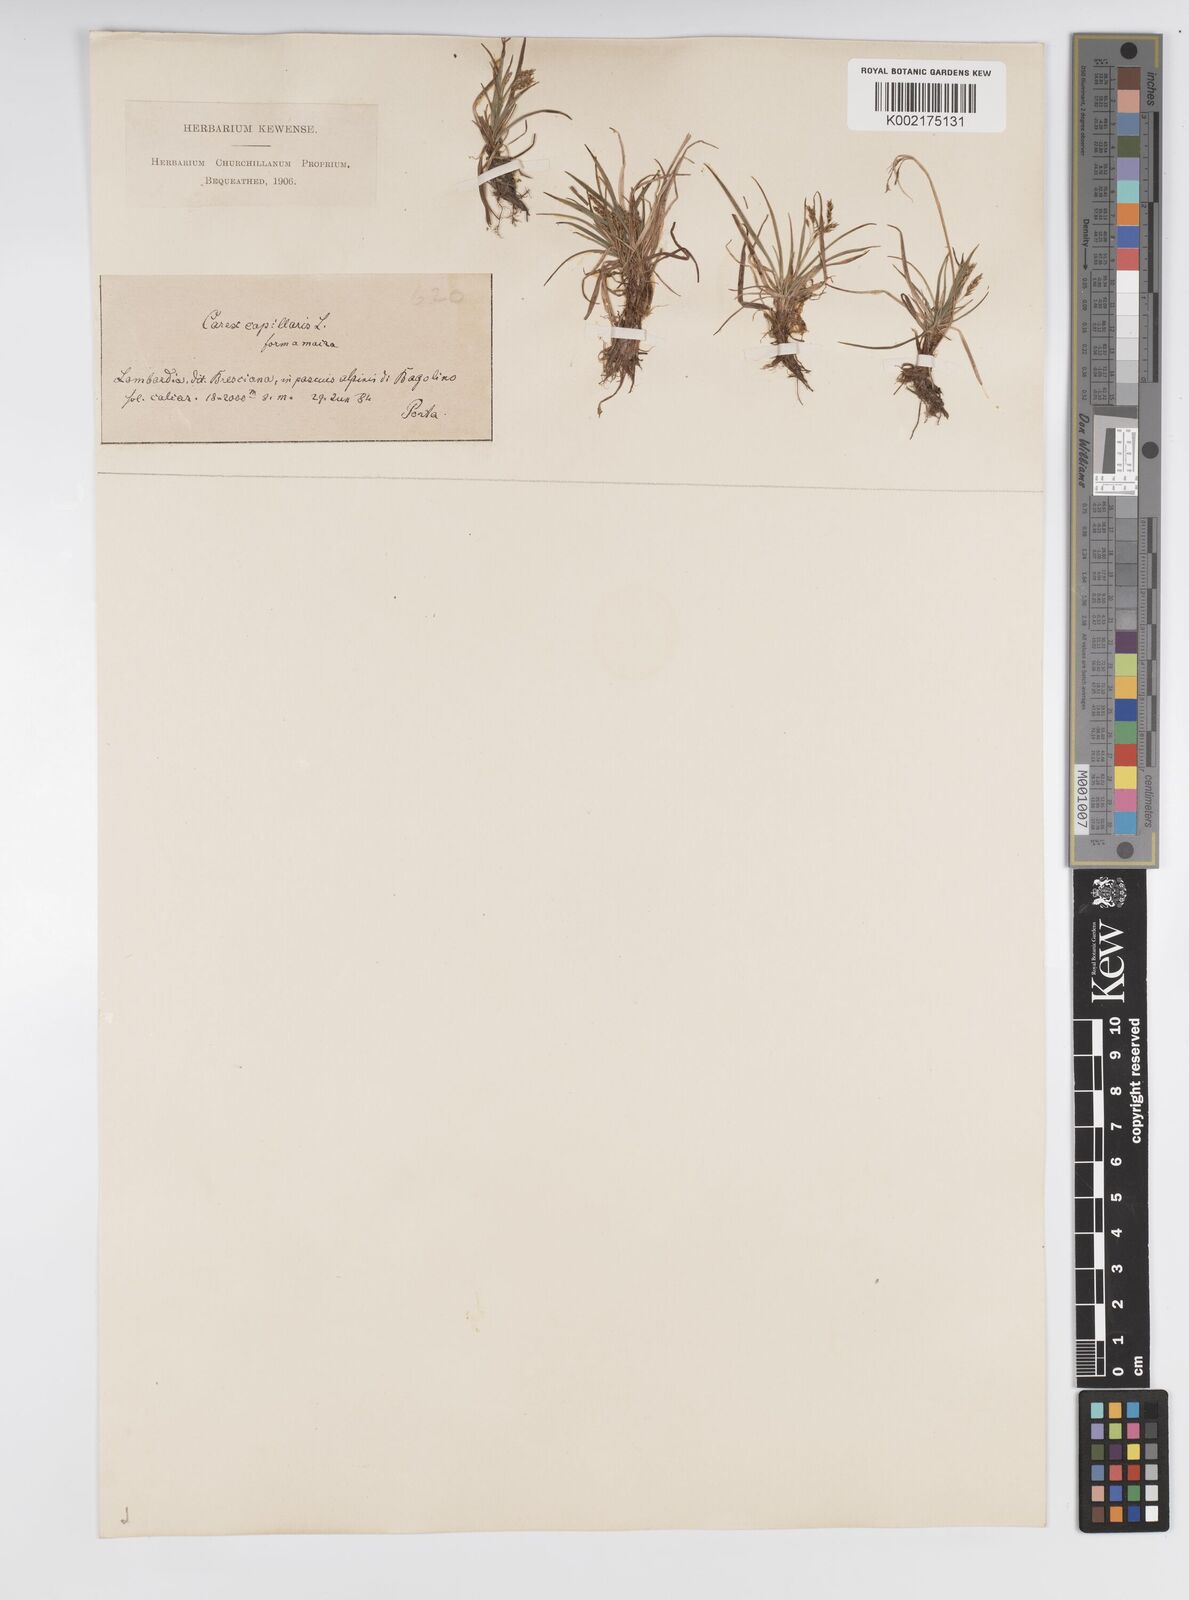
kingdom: Plantae
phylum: Tracheophyta
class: Liliopsida
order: Poales
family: Cyperaceae
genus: Carex
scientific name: Carex capillaris
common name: Hair sedge
